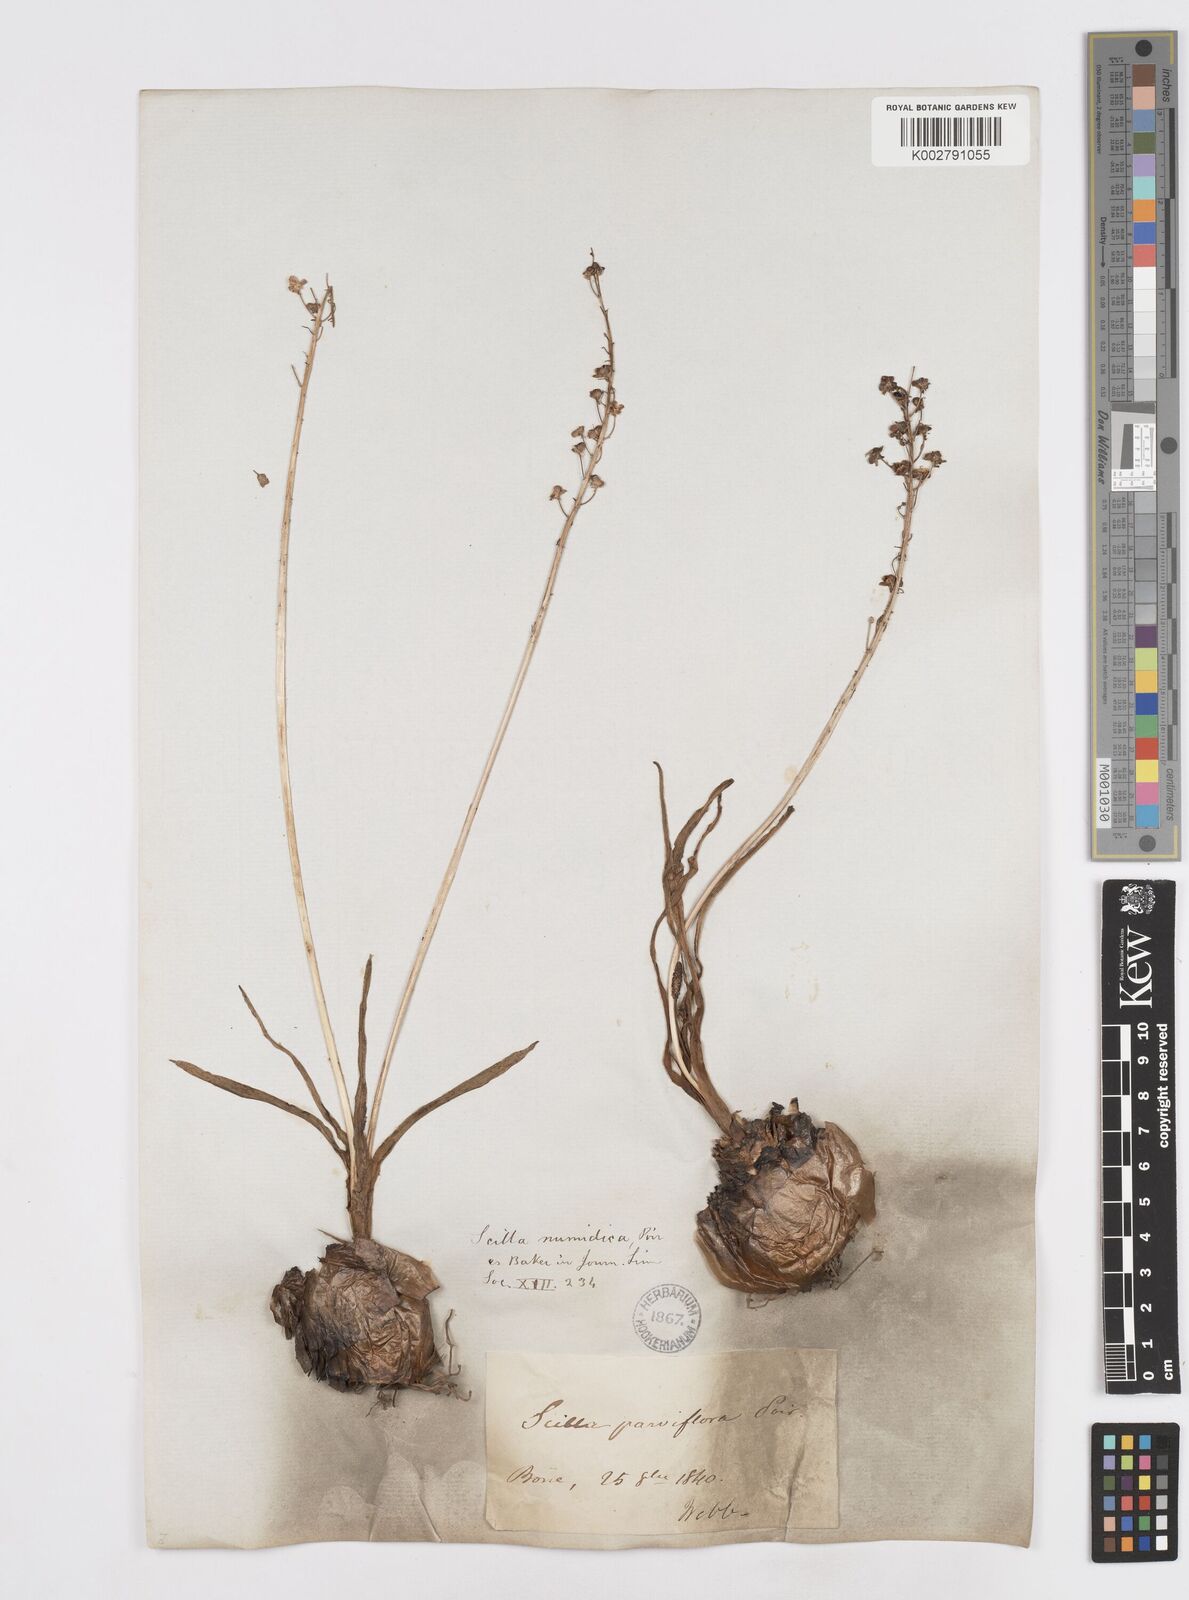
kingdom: Plantae
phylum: Tracheophyta
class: Liliopsida
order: Asparagales
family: Asparagaceae
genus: Barnardia
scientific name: Barnardia numidica
